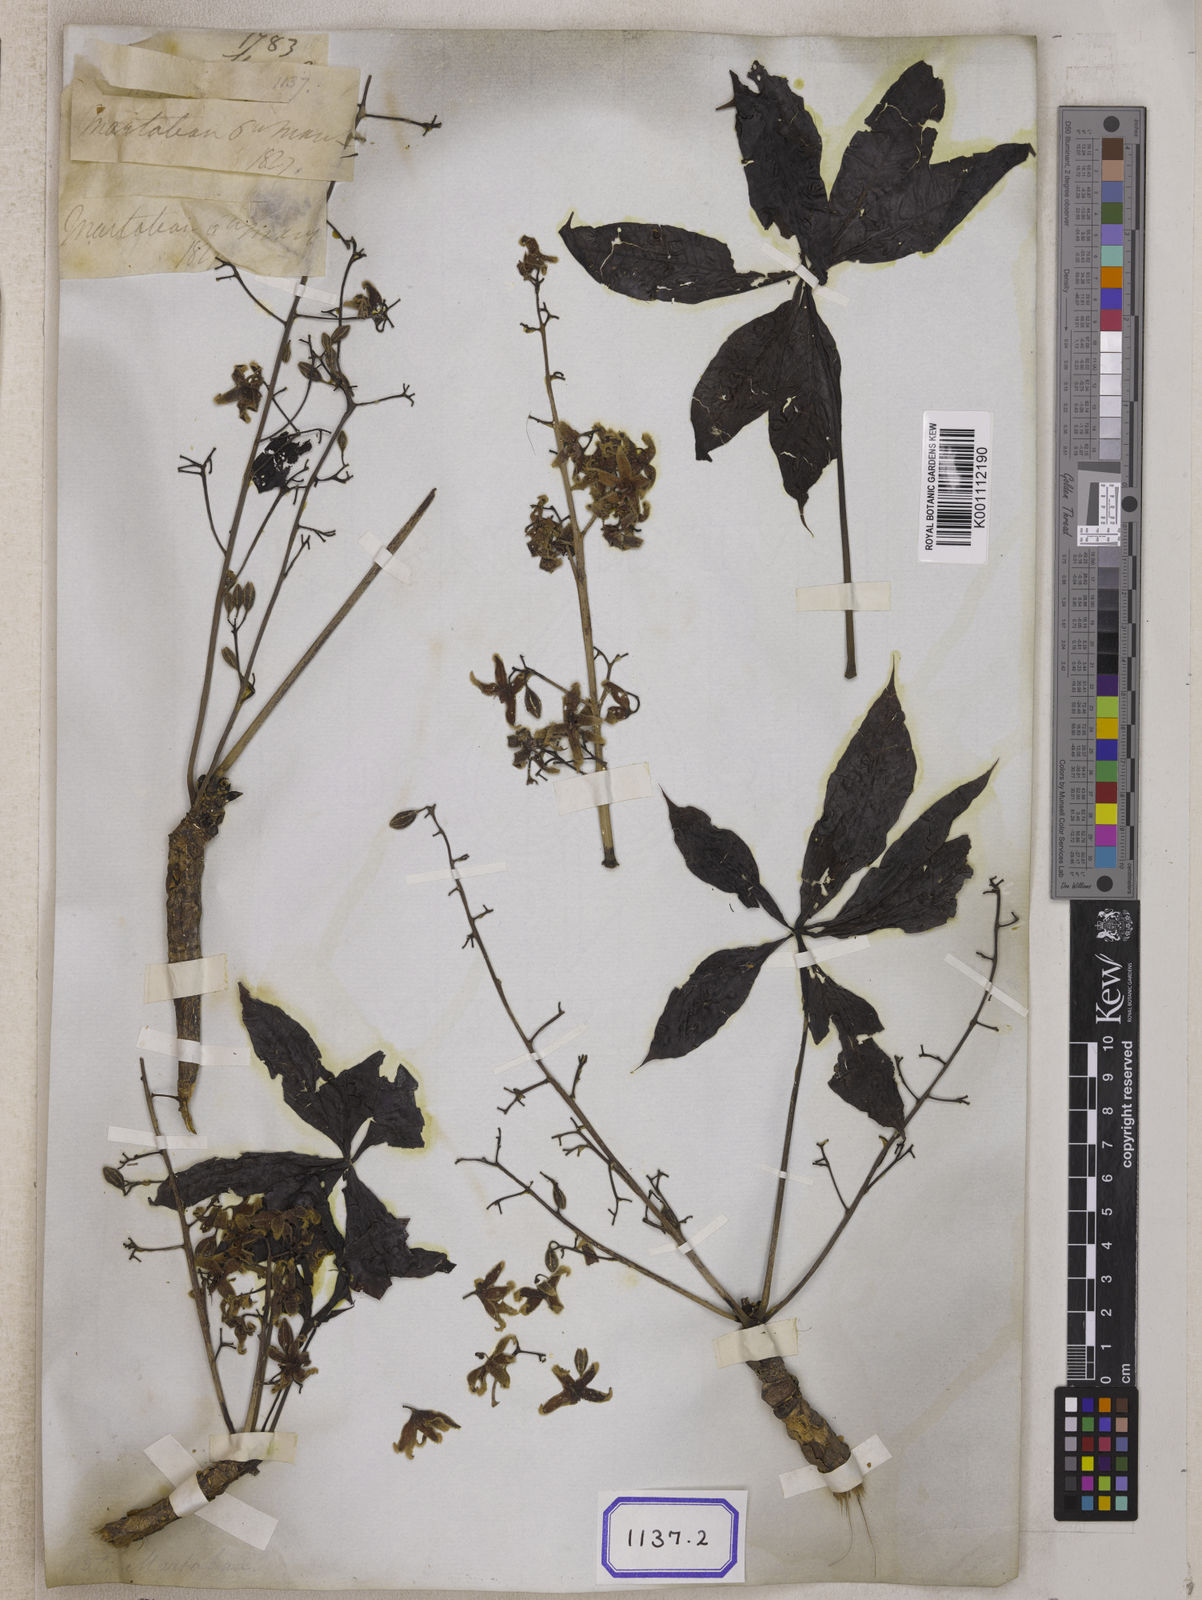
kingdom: Plantae
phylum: Tracheophyta
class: Magnoliopsida
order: Malvales
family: Malvaceae
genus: Sterculia
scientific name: Sterculia foetida
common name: Hazel sterculia
